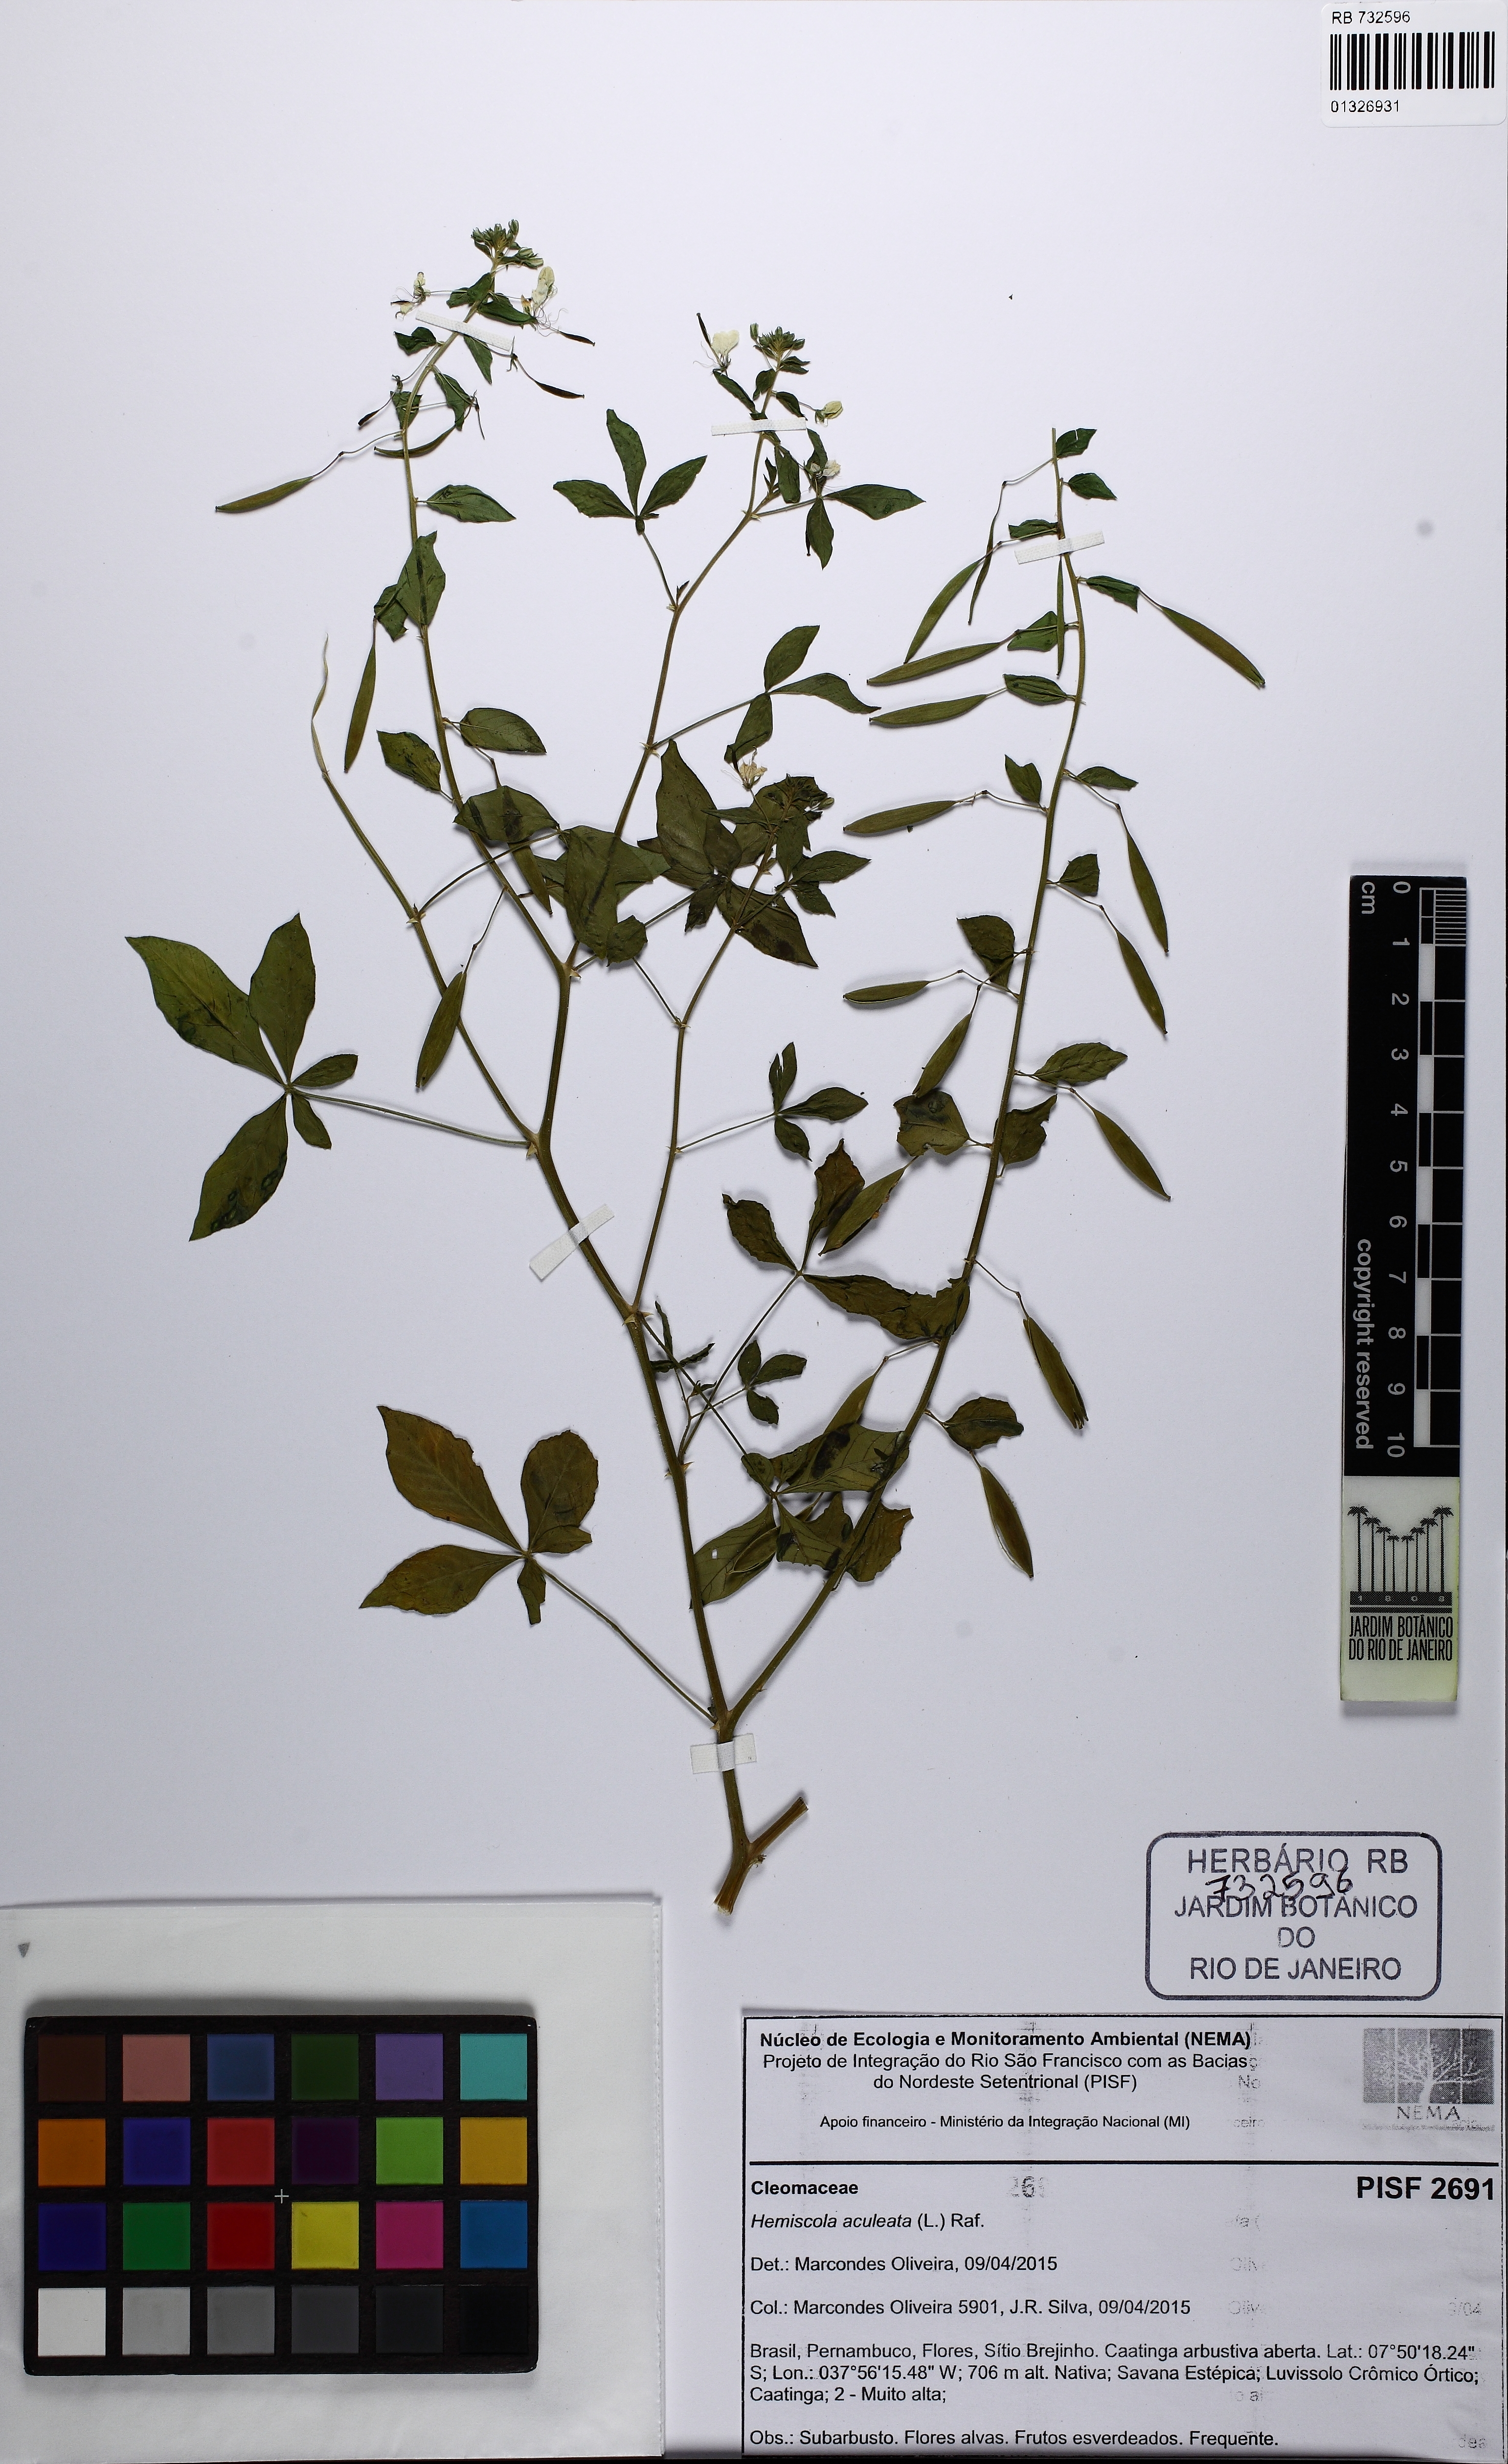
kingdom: Plantae
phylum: Tracheophyta
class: Magnoliopsida
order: Brassicales
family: Cleomaceae
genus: Tarenaya
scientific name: Tarenaya aculeata
